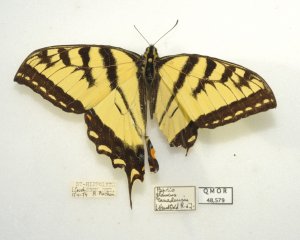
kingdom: Animalia
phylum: Arthropoda
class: Insecta
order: Lepidoptera
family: Papilionidae
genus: Pterourus
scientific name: Pterourus canadensis
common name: Canadian Tiger Swallowtail
